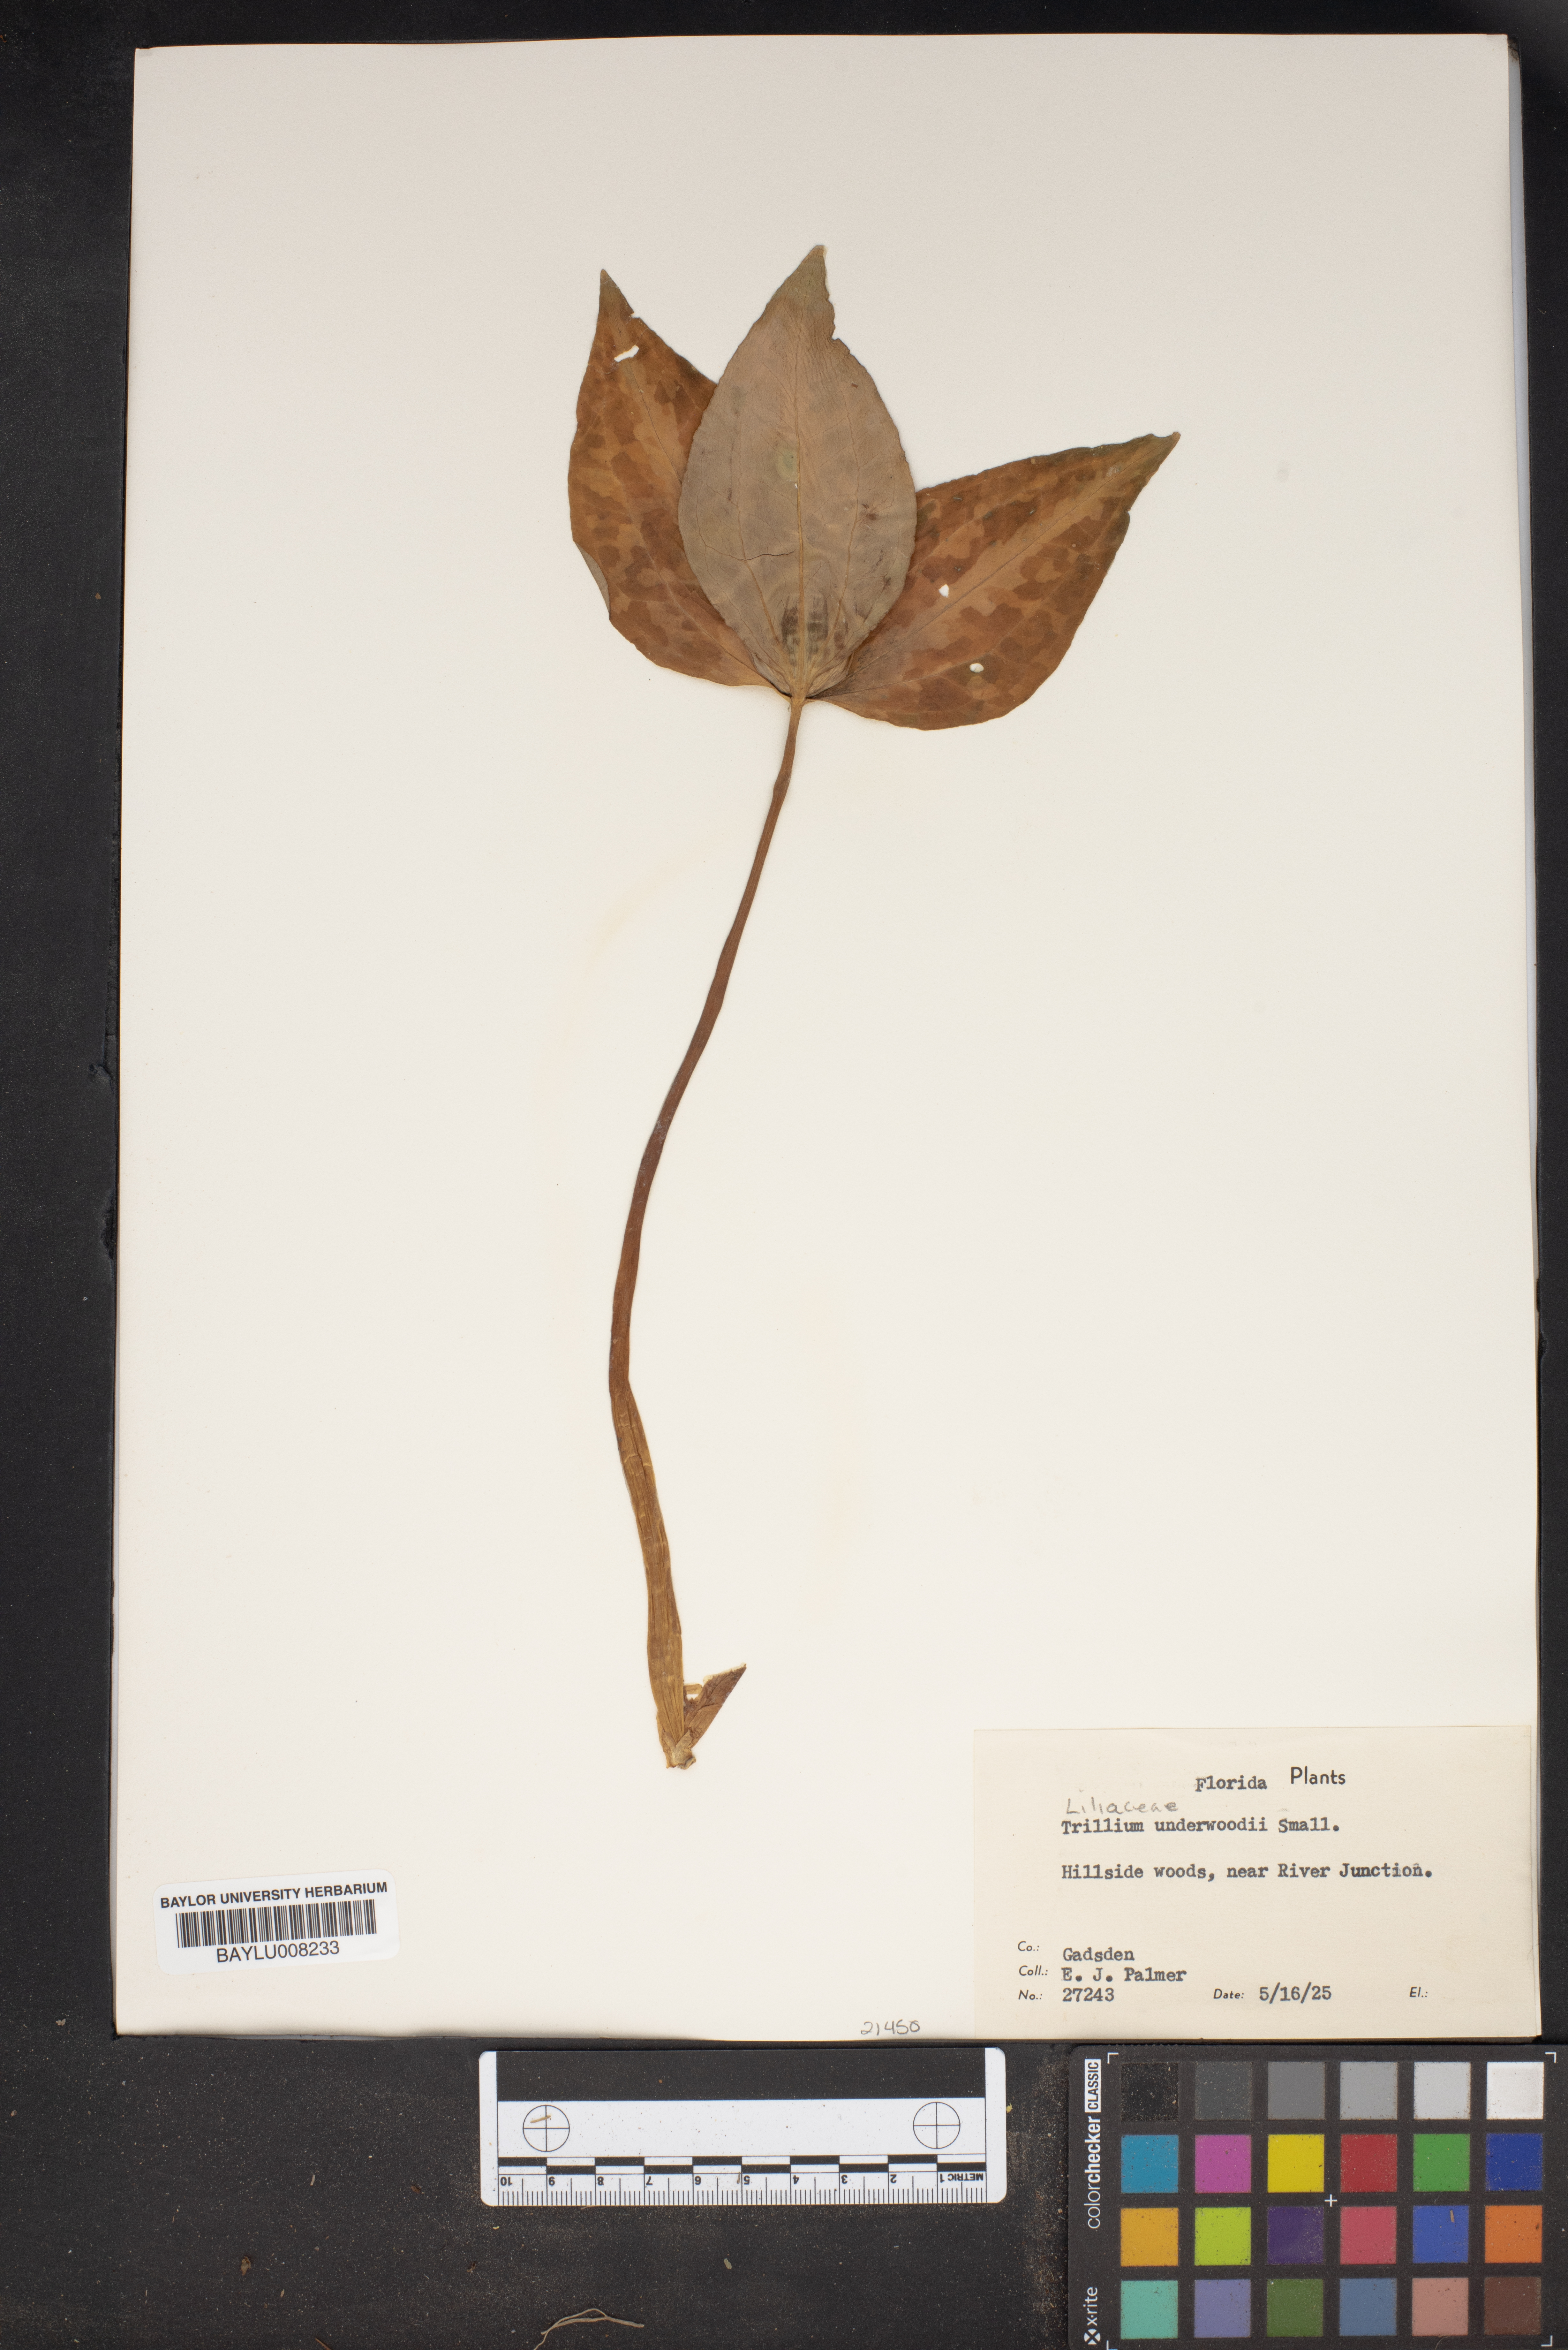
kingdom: Plantae
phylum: Tracheophyta
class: Liliopsida
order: Liliales
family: Melanthiaceae
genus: Trillium
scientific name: Trillium underwoodii
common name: Longbract wakerobin
